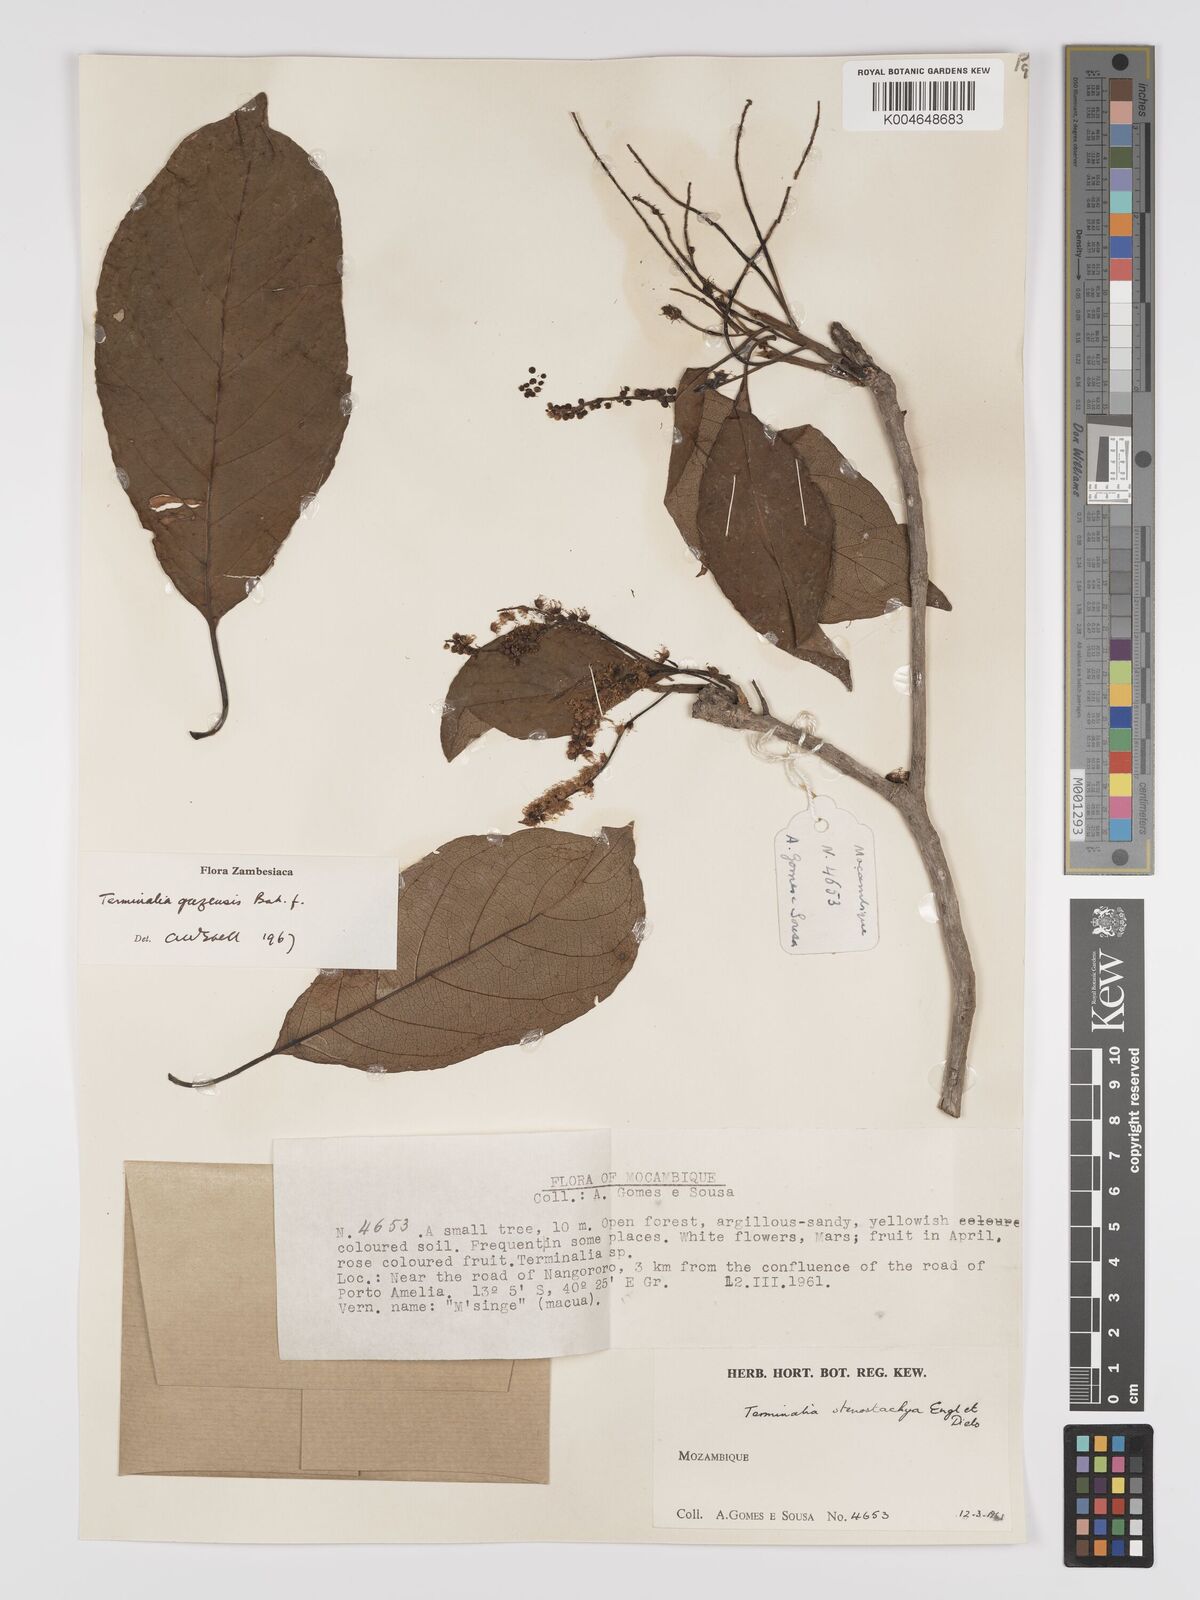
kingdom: Plantae
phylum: Tracheophyta
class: Magnoliopsida
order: Myrtales
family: Combretaceae
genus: Terminalia
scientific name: Terminalia stenostachya
